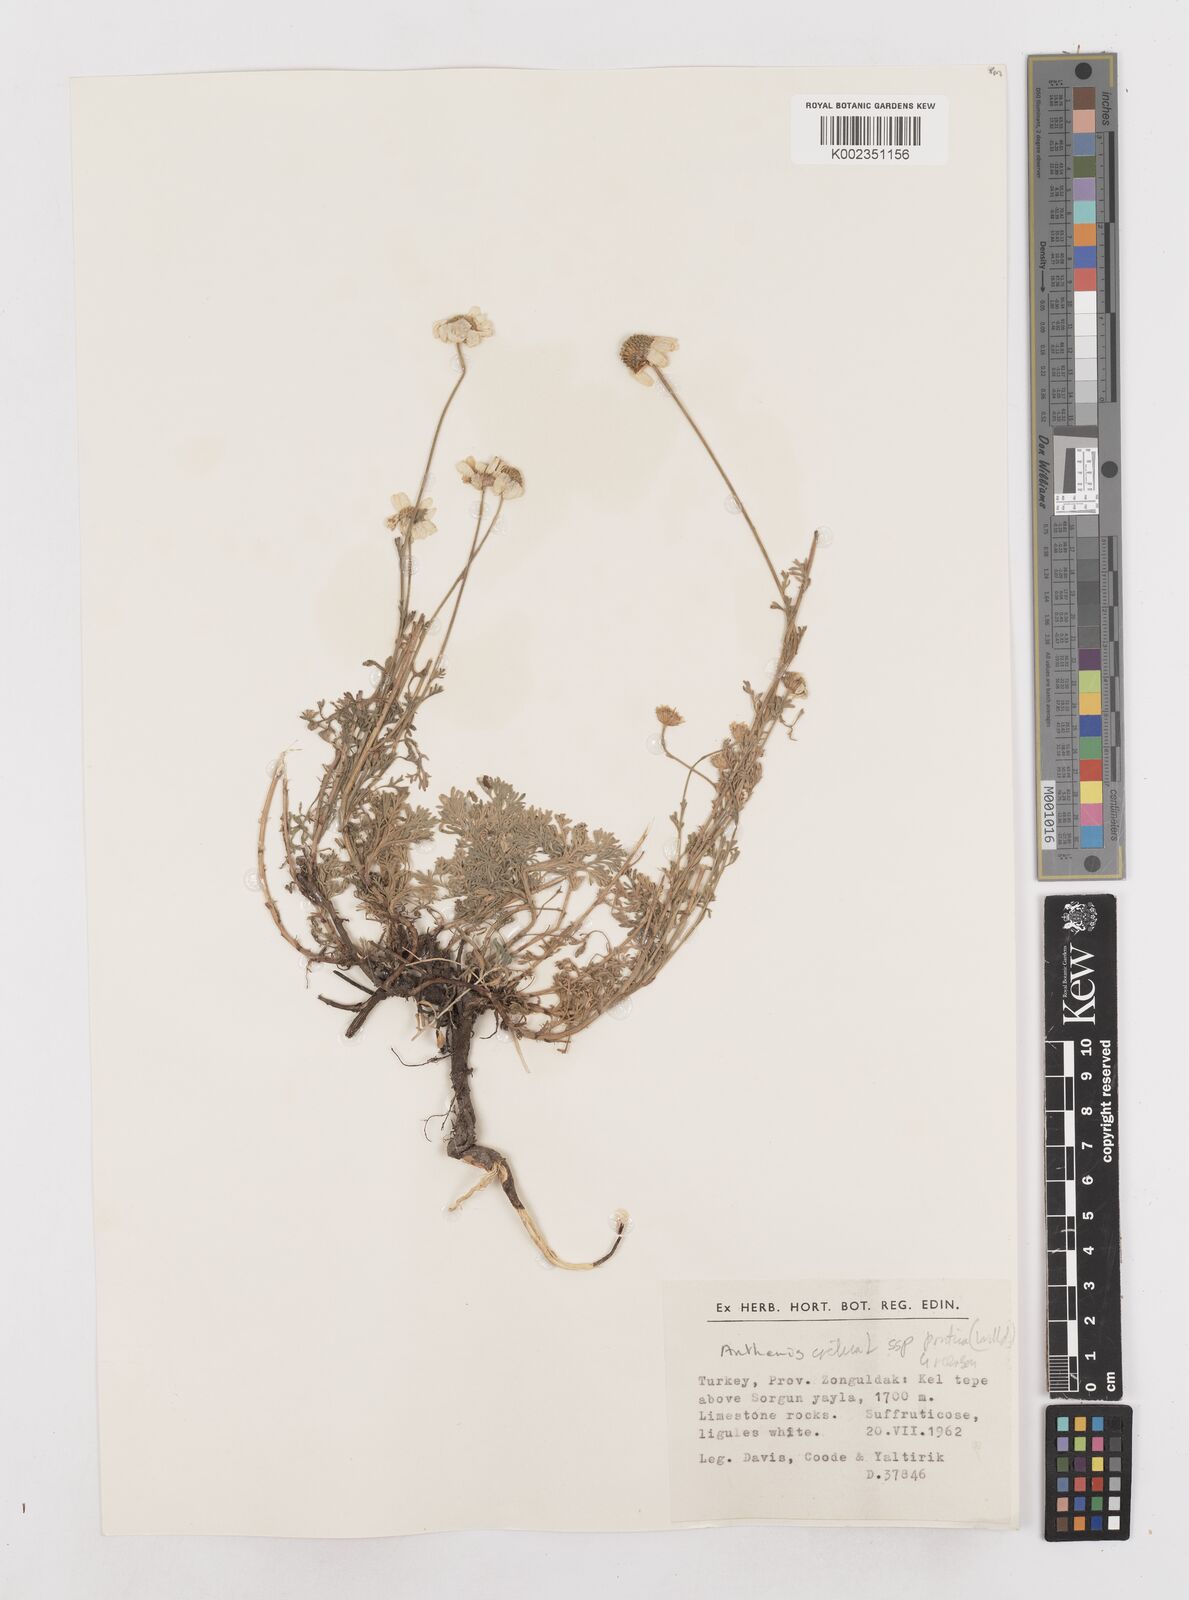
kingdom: Plantae
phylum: Tracheophyta
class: Magnoliopsida
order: Asterales
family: Asteraceae
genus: Anthemis
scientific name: Anthemis cretica
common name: Mountain dog-daisy
